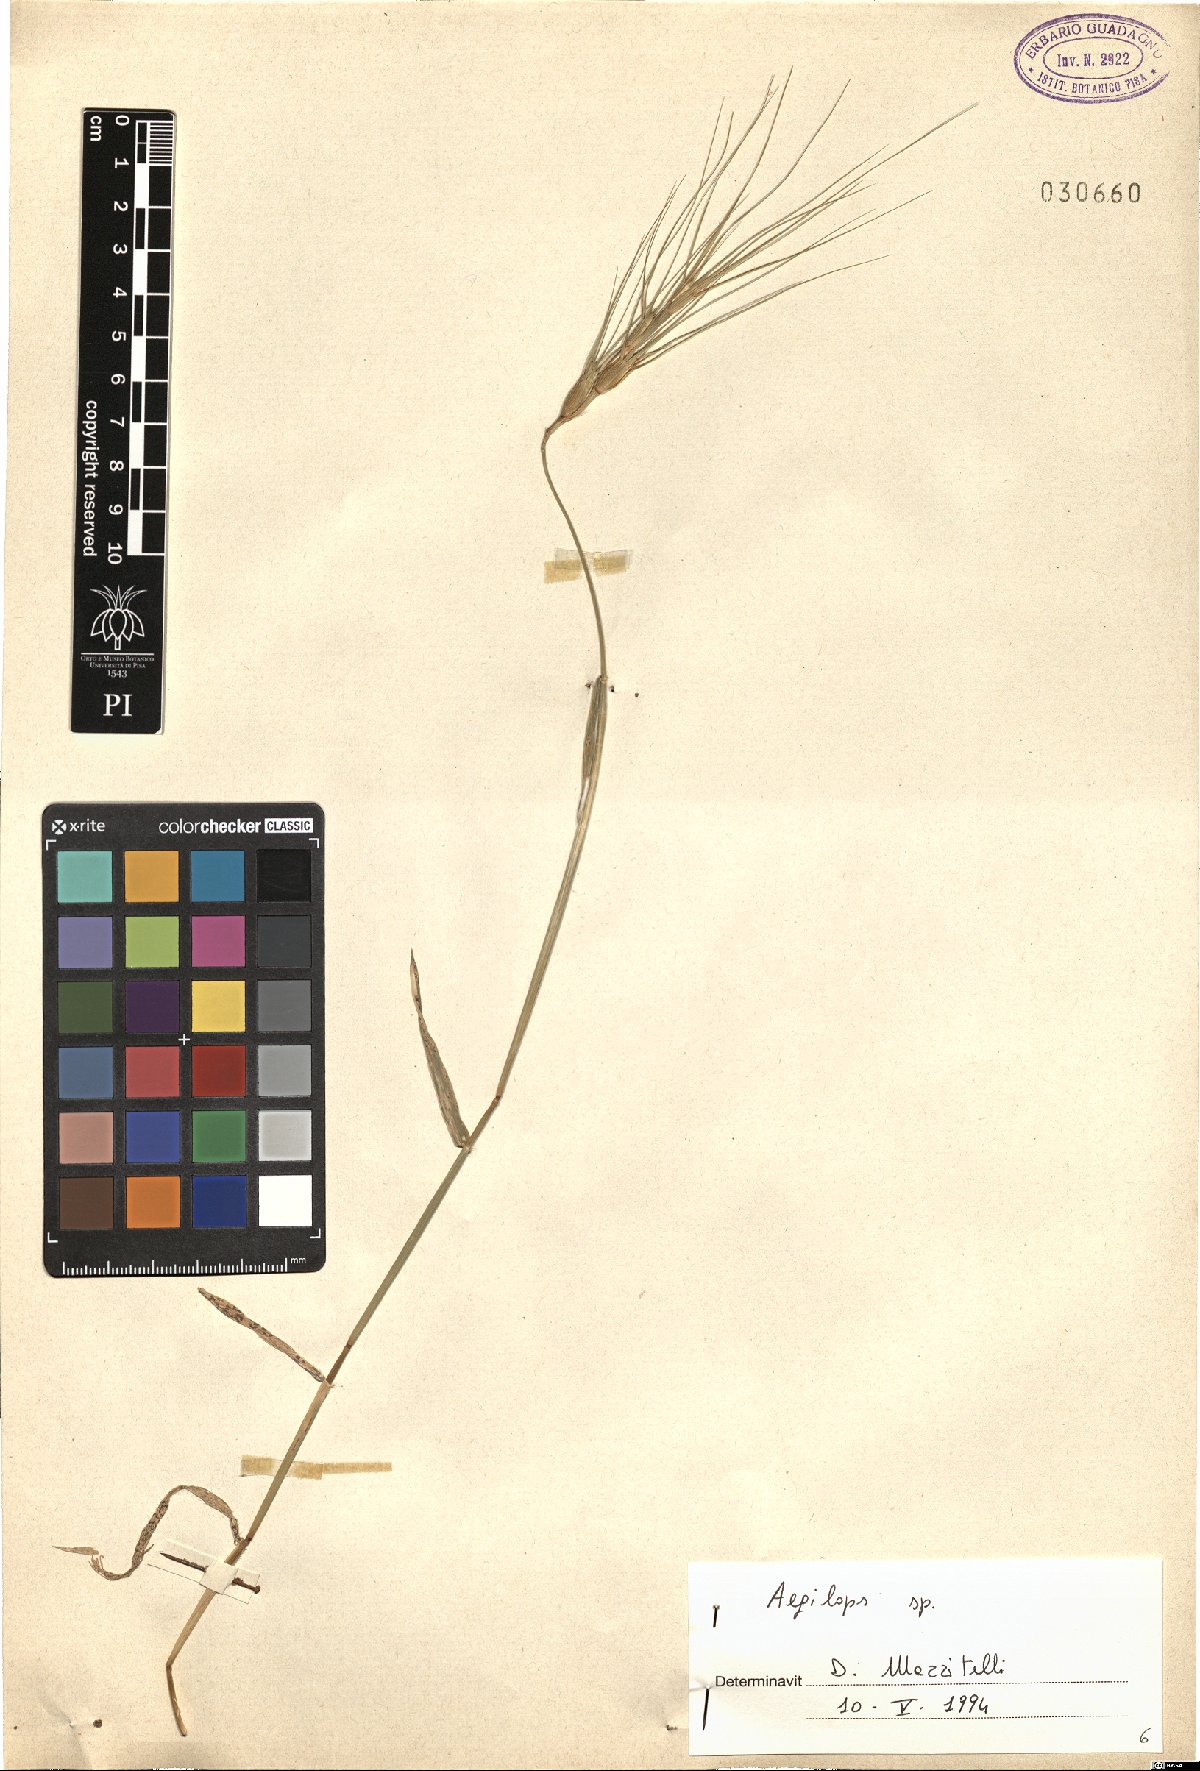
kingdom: Plantae
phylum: Tracheophyta
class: Liliopsida
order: Poales
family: Poaceae
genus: Aegilops
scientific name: Aegilops
